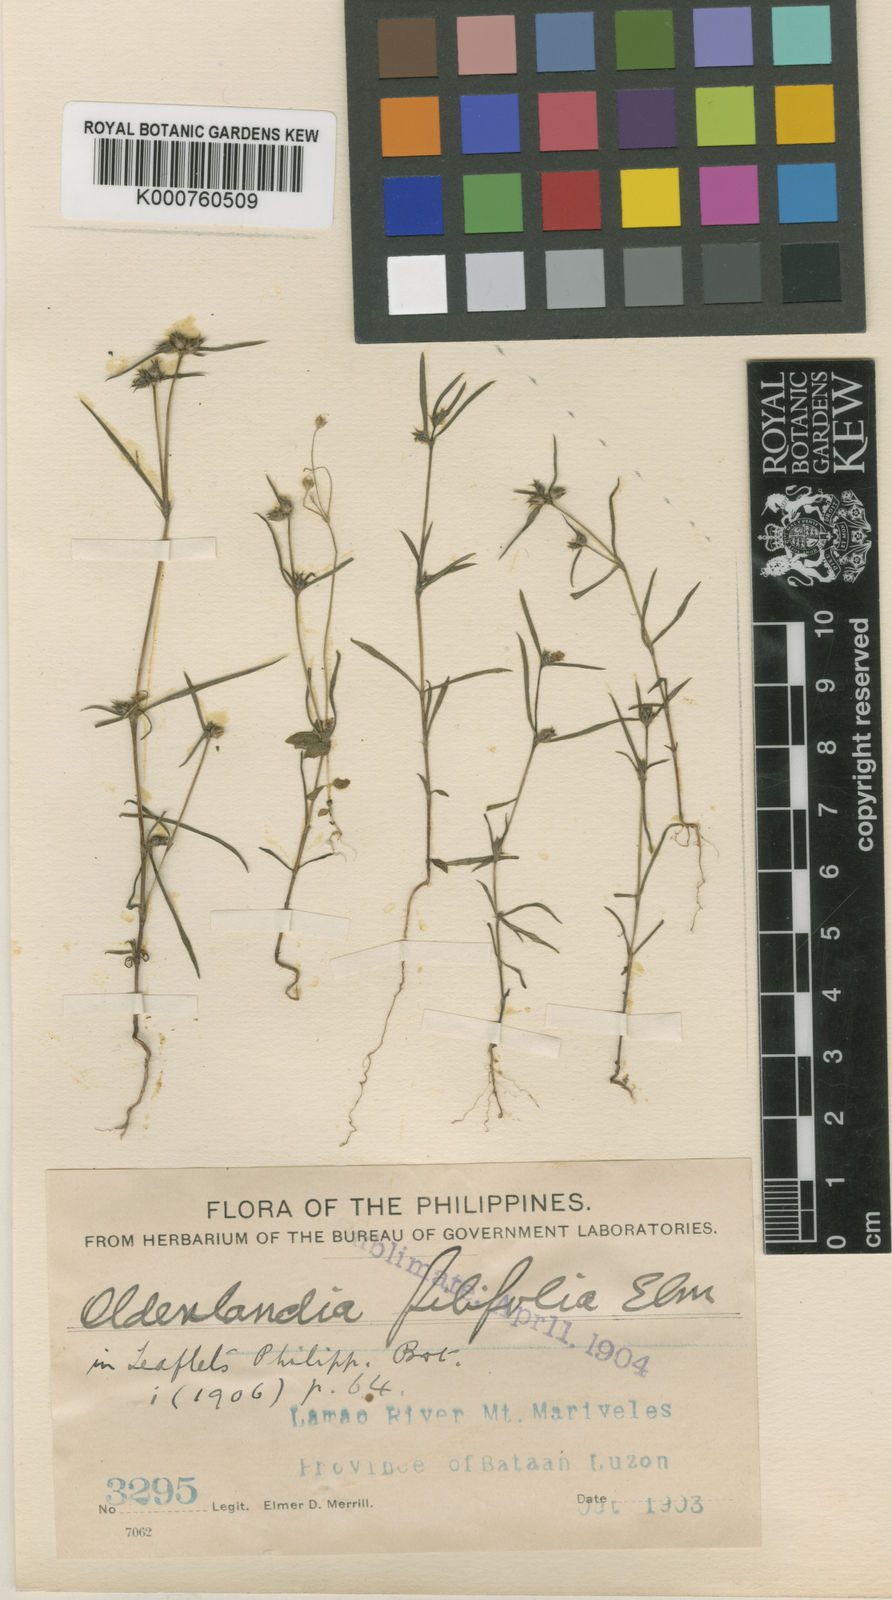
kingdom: Plantae
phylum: Tracheophyta
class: Magnoliopsida
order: Gentianales
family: Rubiaceae
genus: Oldenlandia
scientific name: Oldenlandia filifolia
